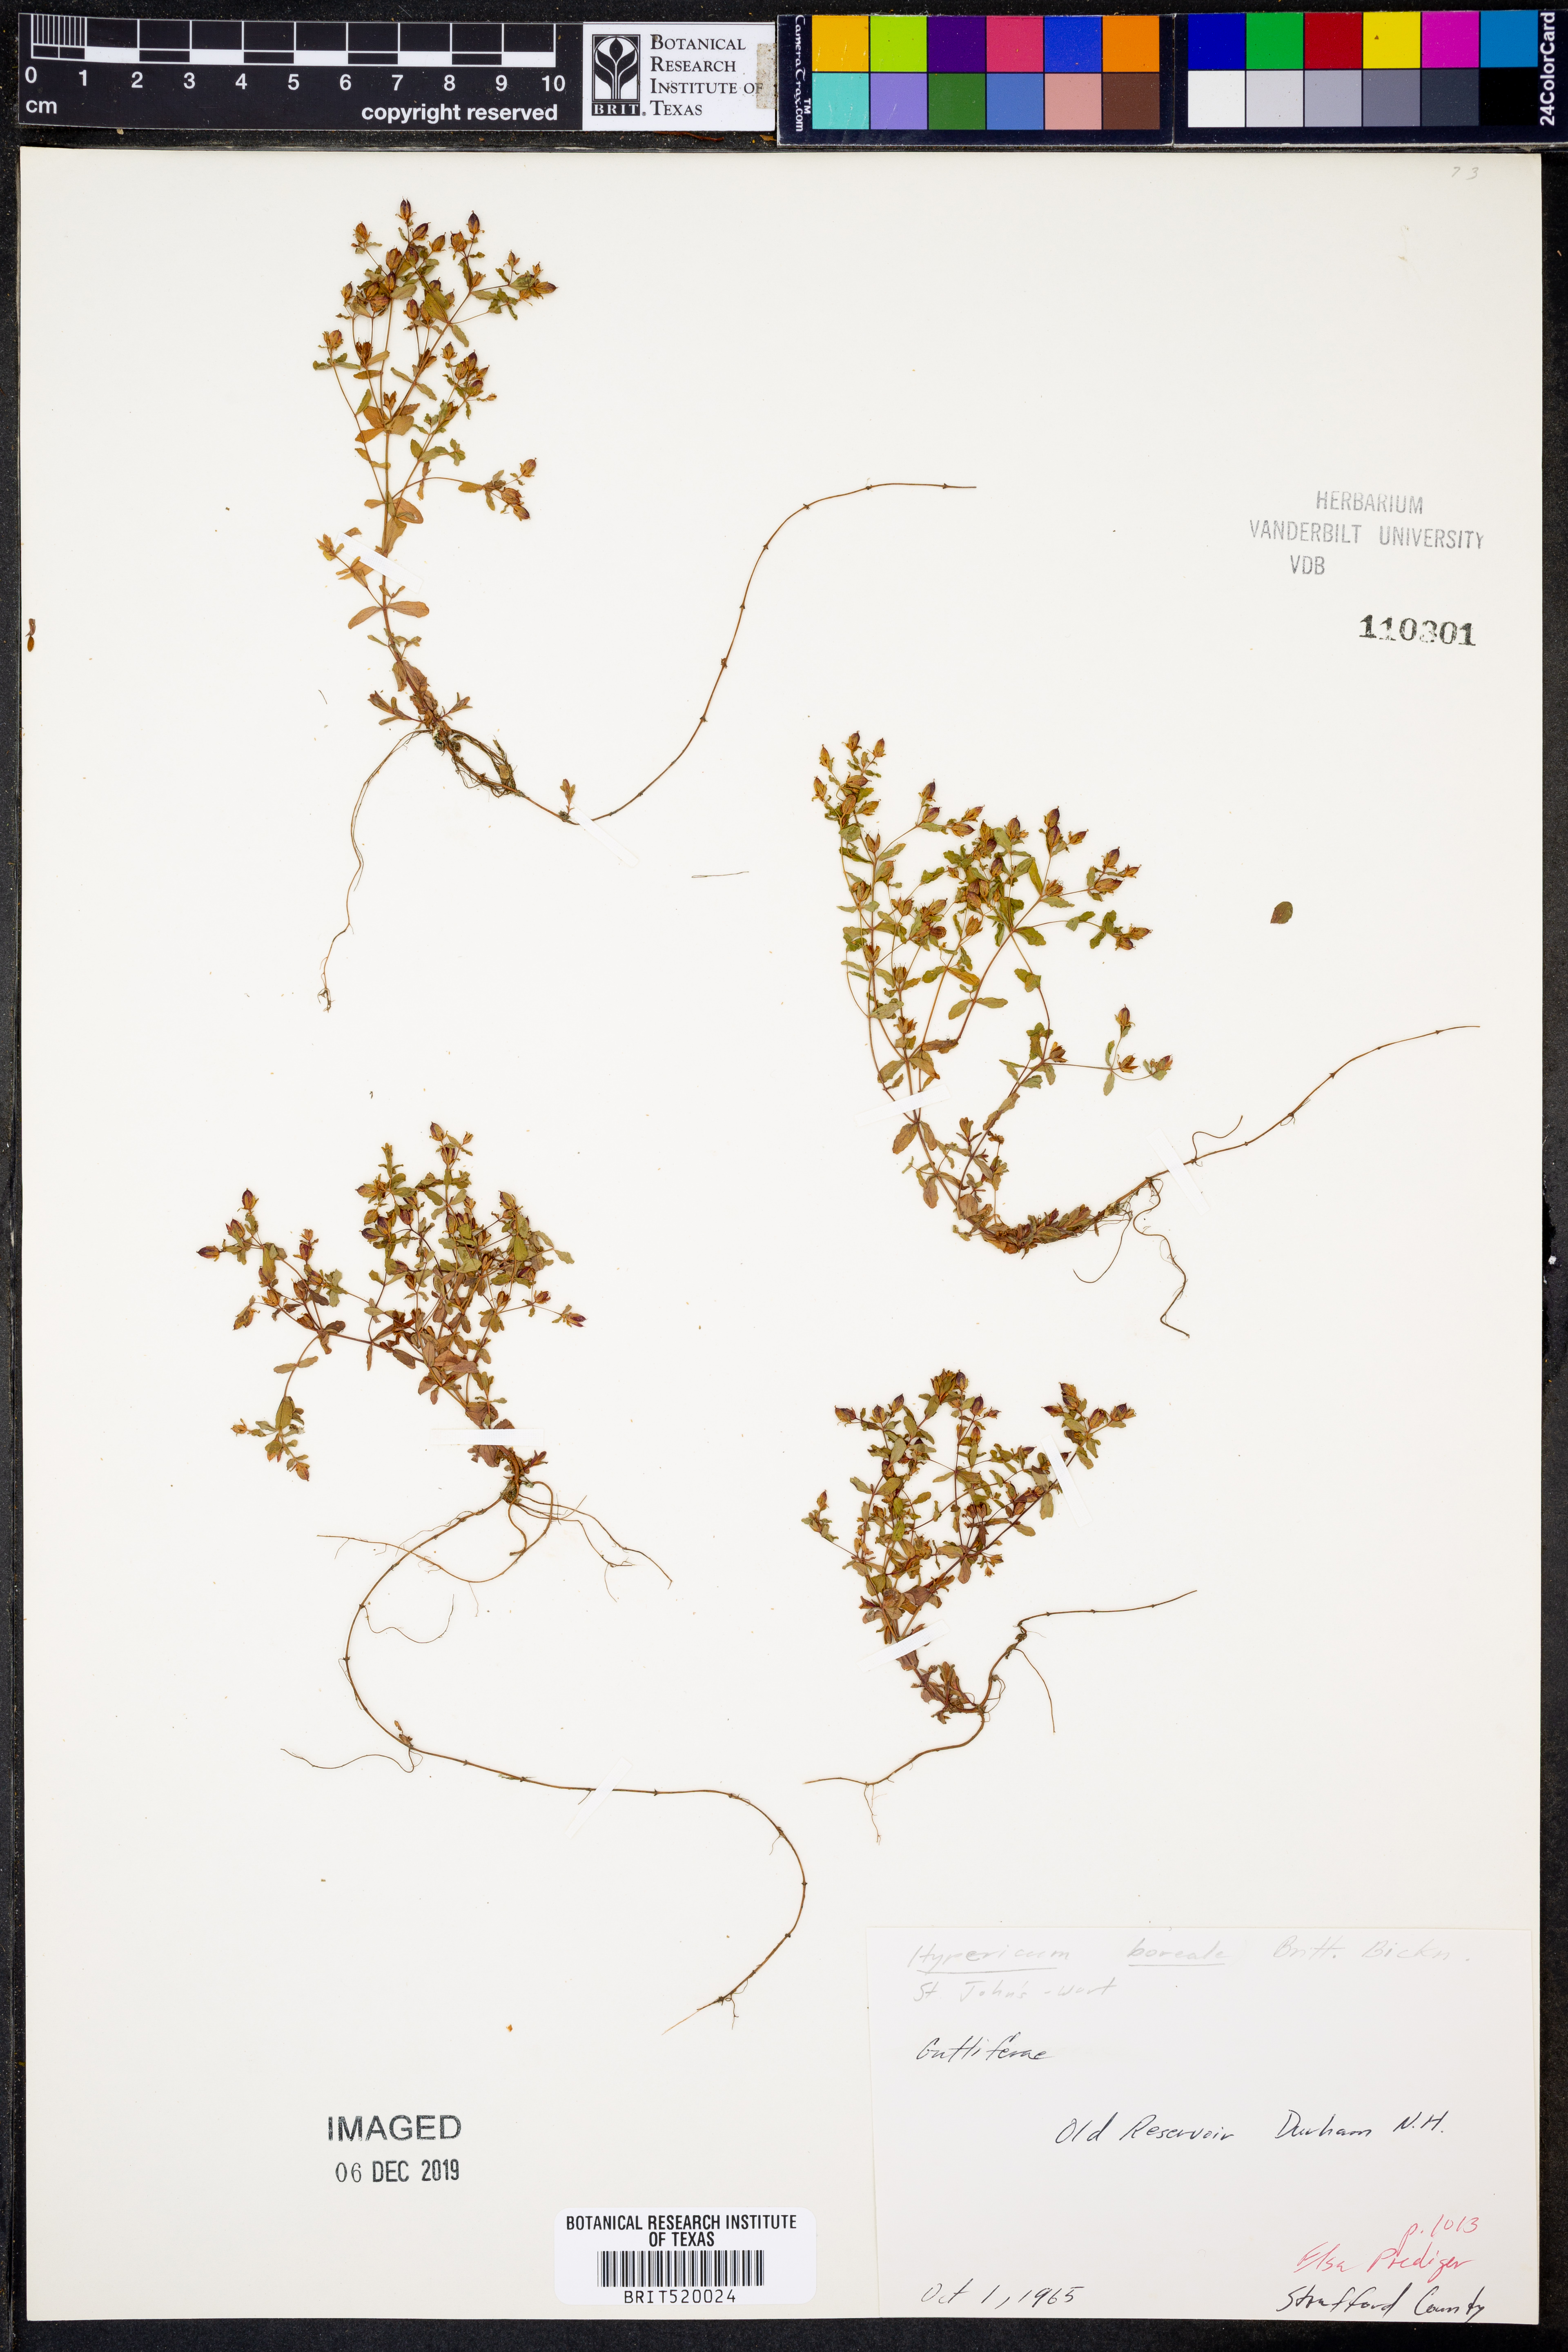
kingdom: Plantae
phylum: Tracheophyta
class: Magnoliopsida
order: Malpighiales
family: Hypericaceae
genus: Hypericum
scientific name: Hypericum boreale
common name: Northern bog st. john's-wort
